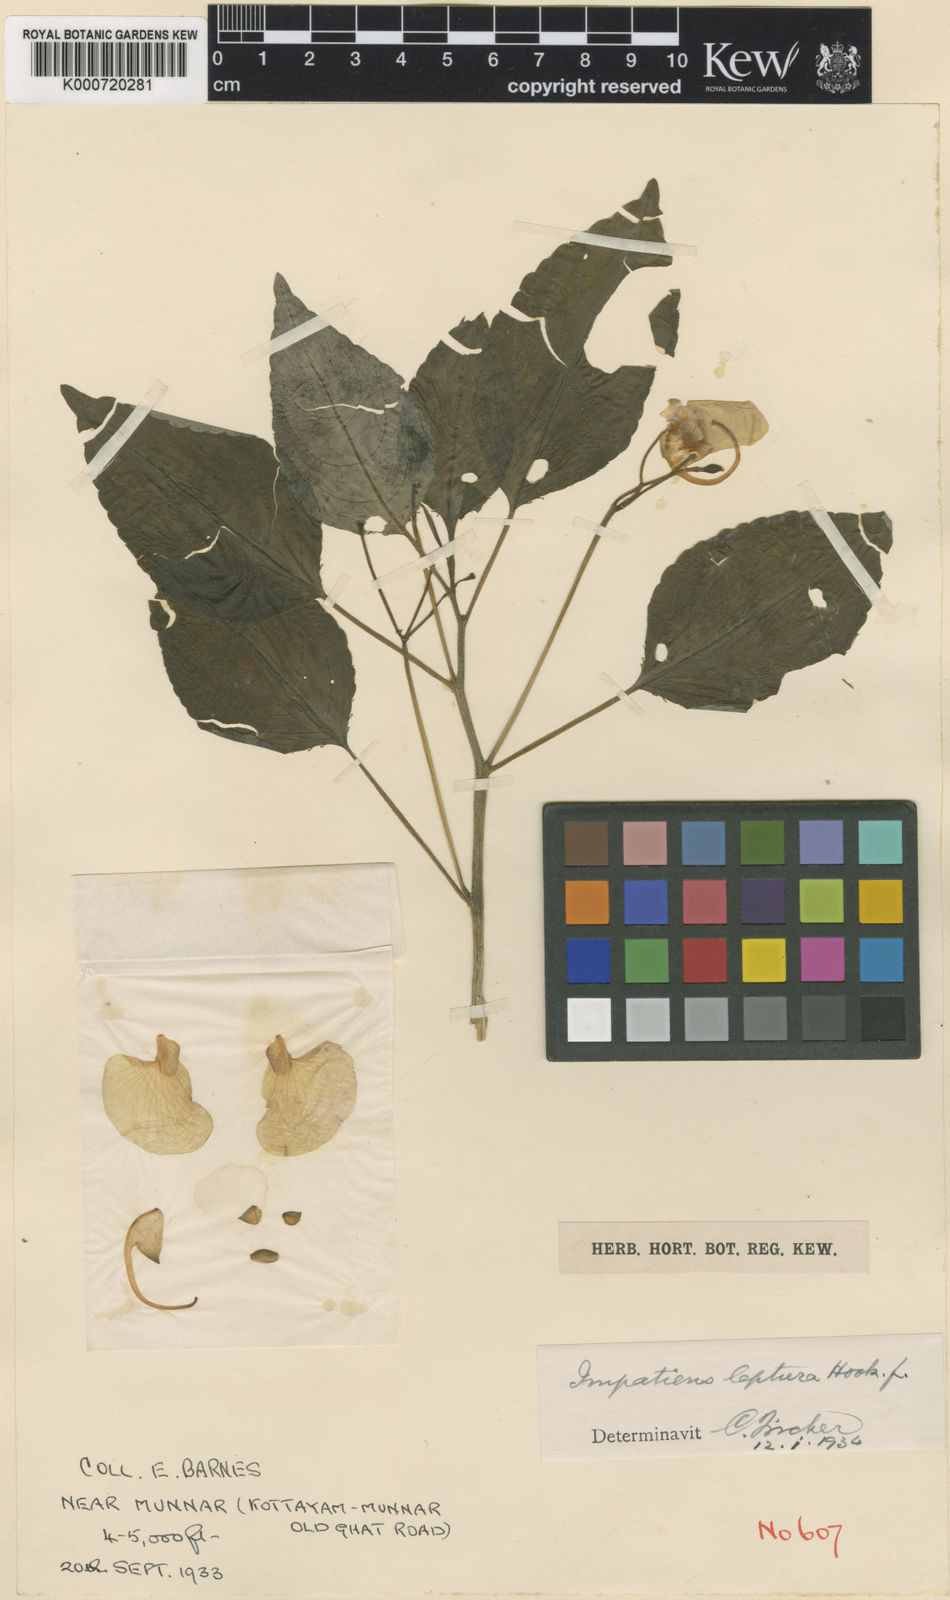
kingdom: Plantae
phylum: Tracheophyta
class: Magnoliopsida
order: Ericales
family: Balsaminaceae
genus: Impatiens
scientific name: Impatiens leptura
